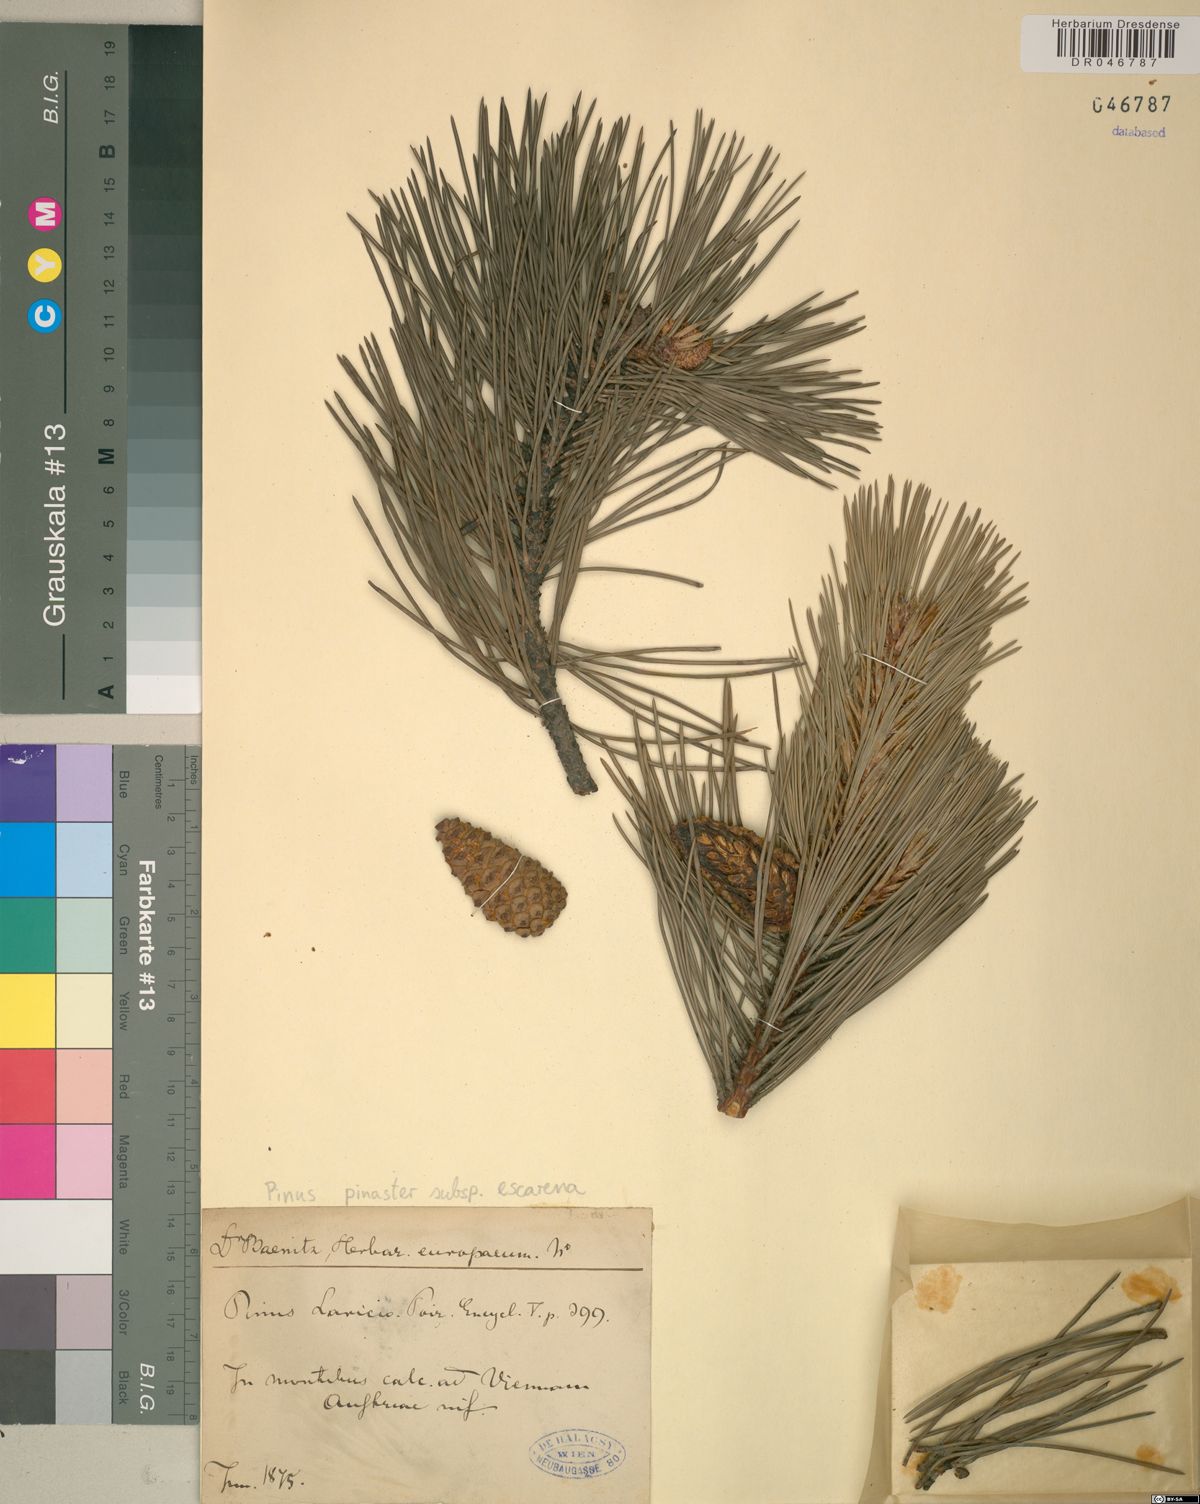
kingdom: Plantae
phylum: Tracheophyta
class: Pinopsida
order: Pinales
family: Pinaceae
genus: Pinus
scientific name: Pinus pinaster
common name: Maritime pine
